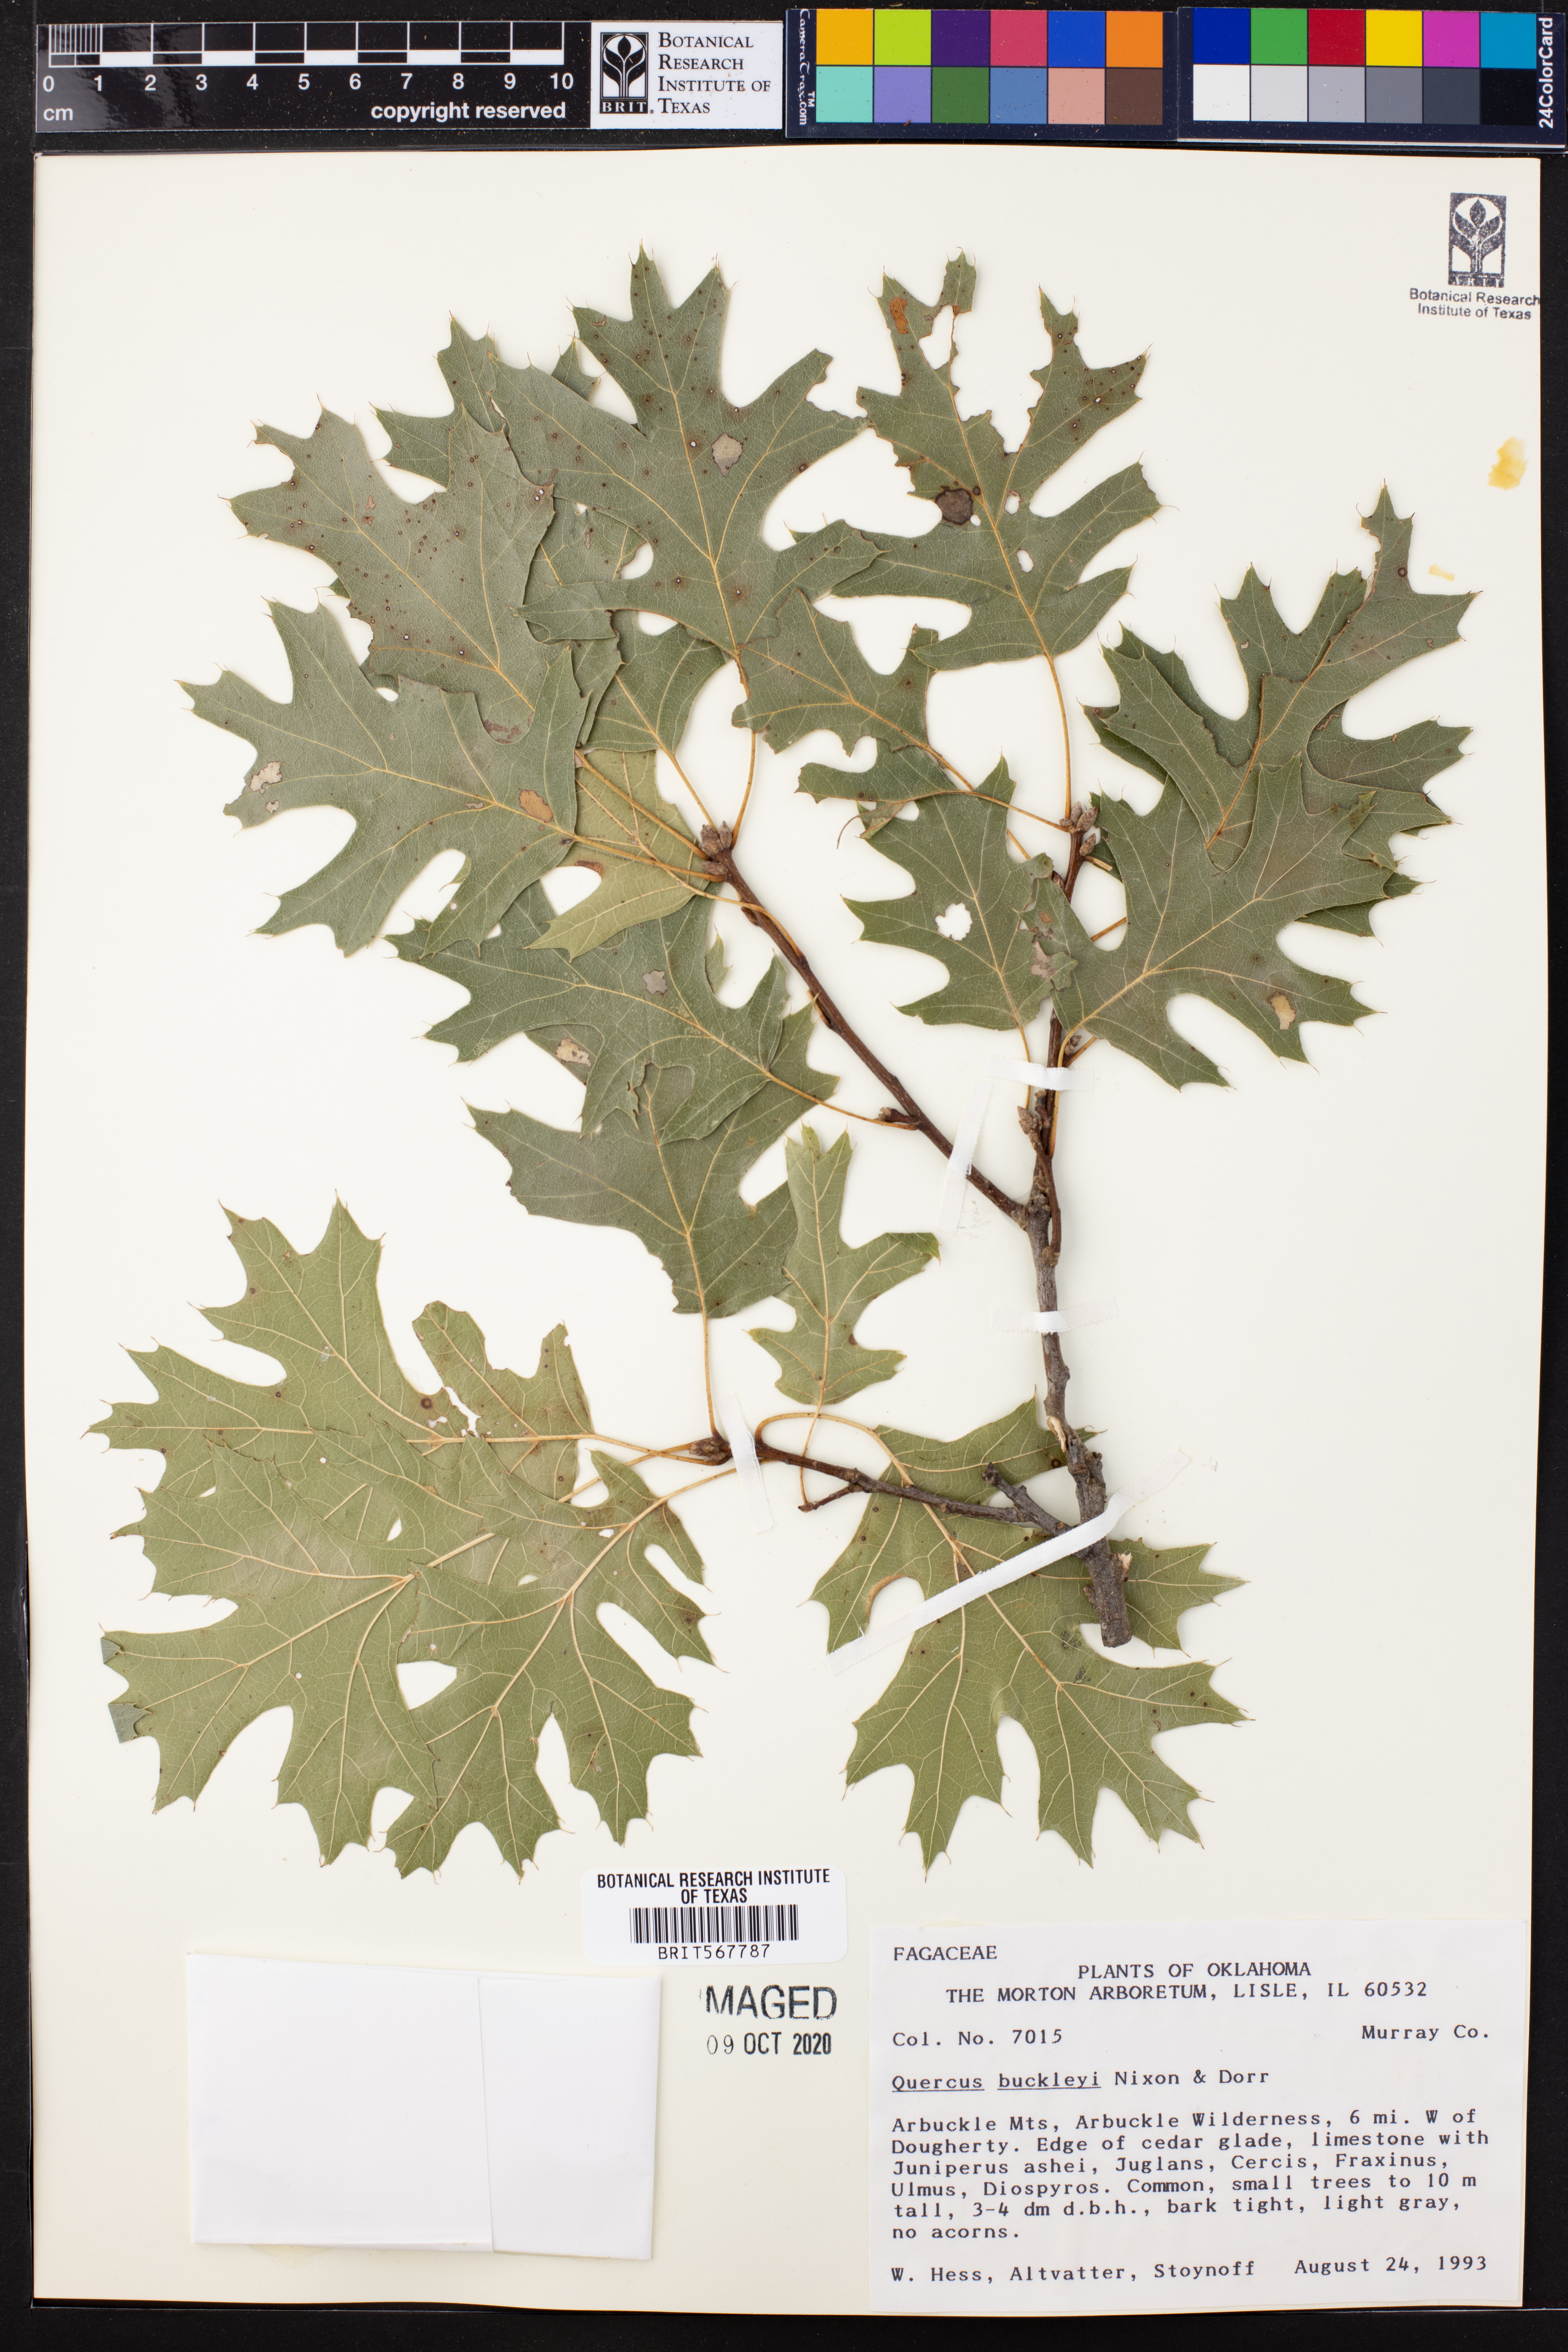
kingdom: Plantae
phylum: Tracheophyta
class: Magnoliopsida
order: Fagales
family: Fagaceae
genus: Quercus
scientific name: Quercus buckleyi
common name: Buckley oak
